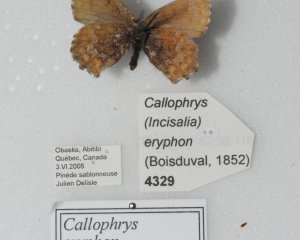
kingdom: Animalia
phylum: Arthropoda
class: Insecta
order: Lepidoptera
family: Lycaenidae
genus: Incisalia
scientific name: Incisalia niphon
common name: Eastern Pine Elfin
